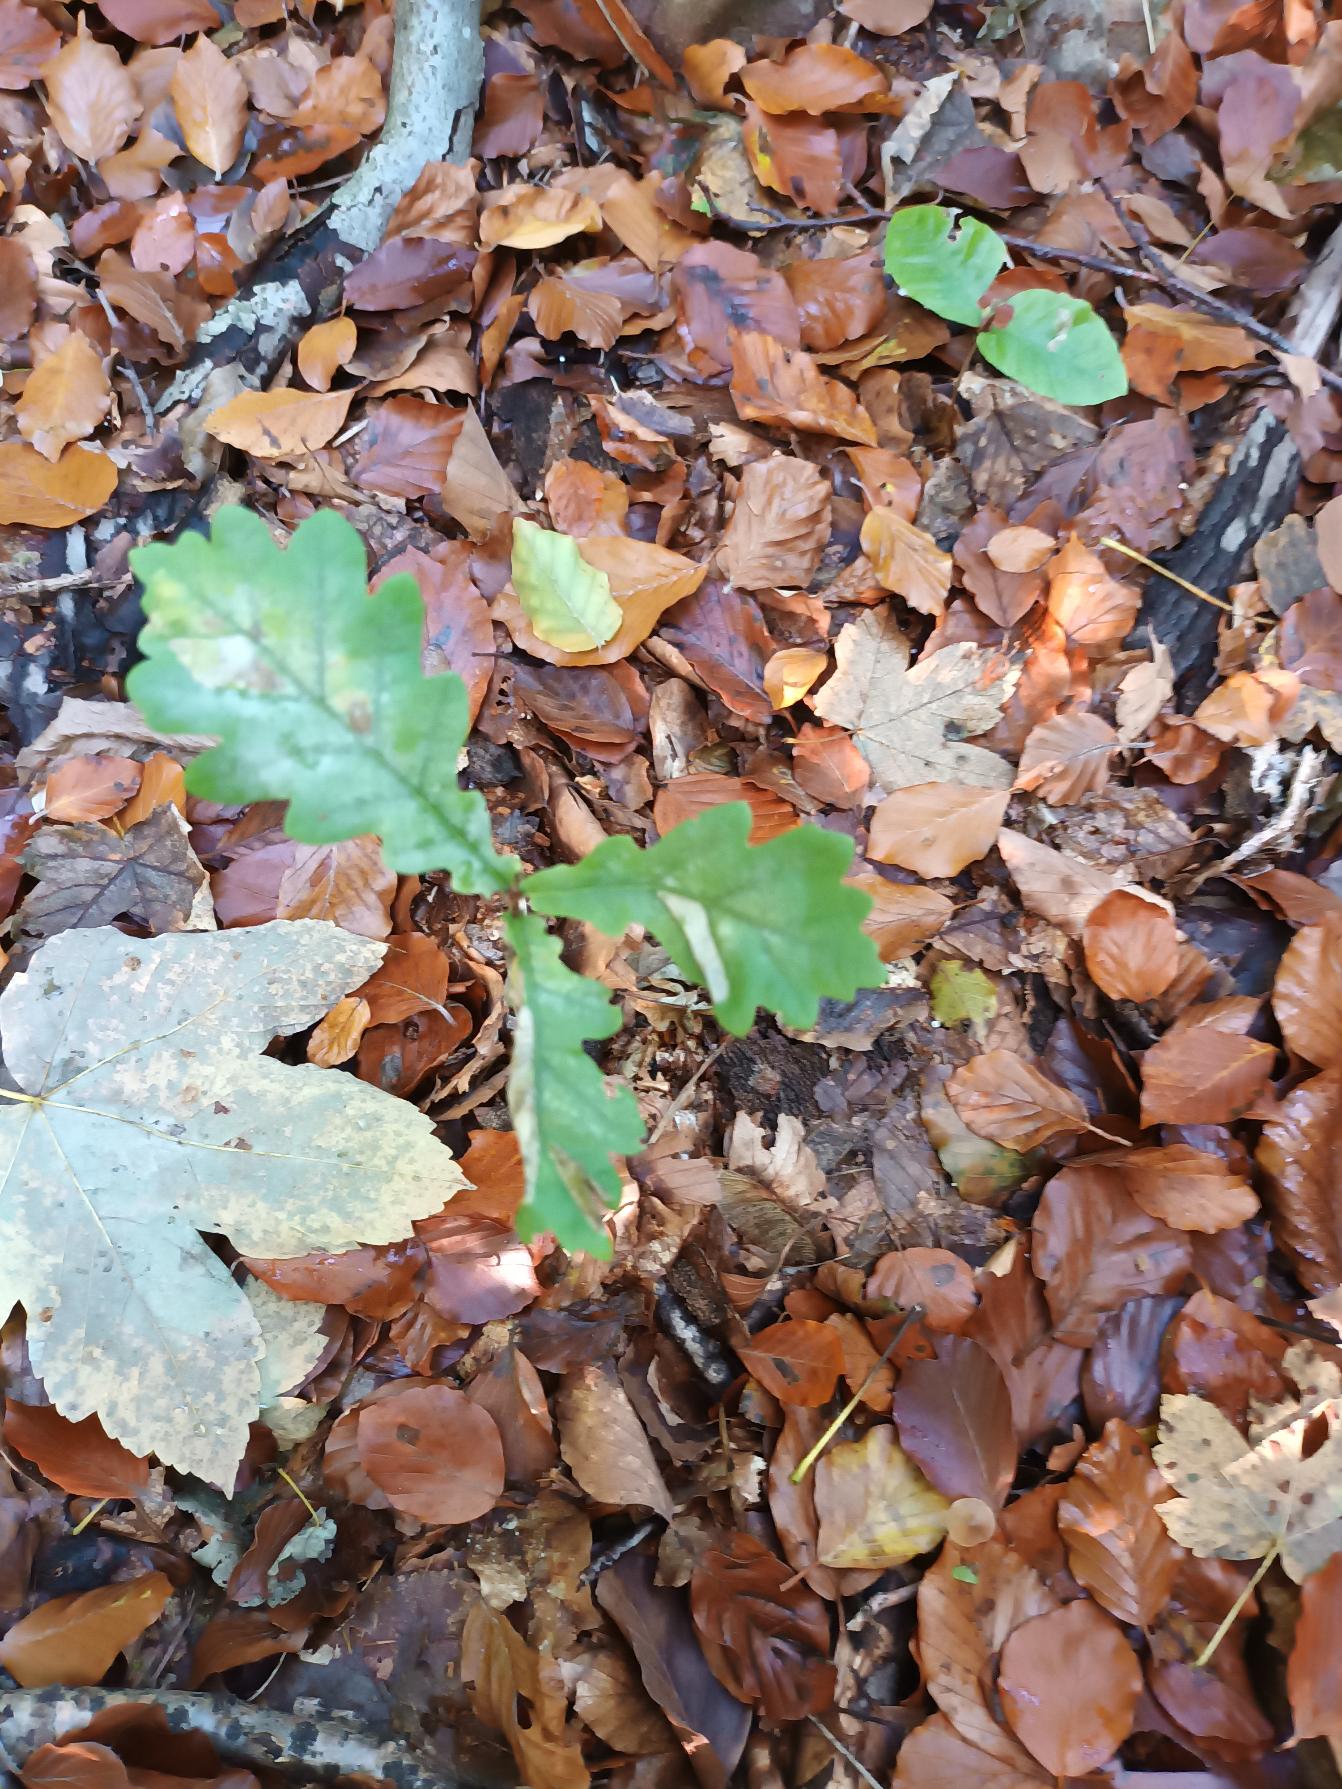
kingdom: Plantae
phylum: Tracheophyta
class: Magnoliopsida
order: Fagales
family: Fagaceae
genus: Quercus
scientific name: Quercus robur
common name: Stilk-eg/almindelig eg
